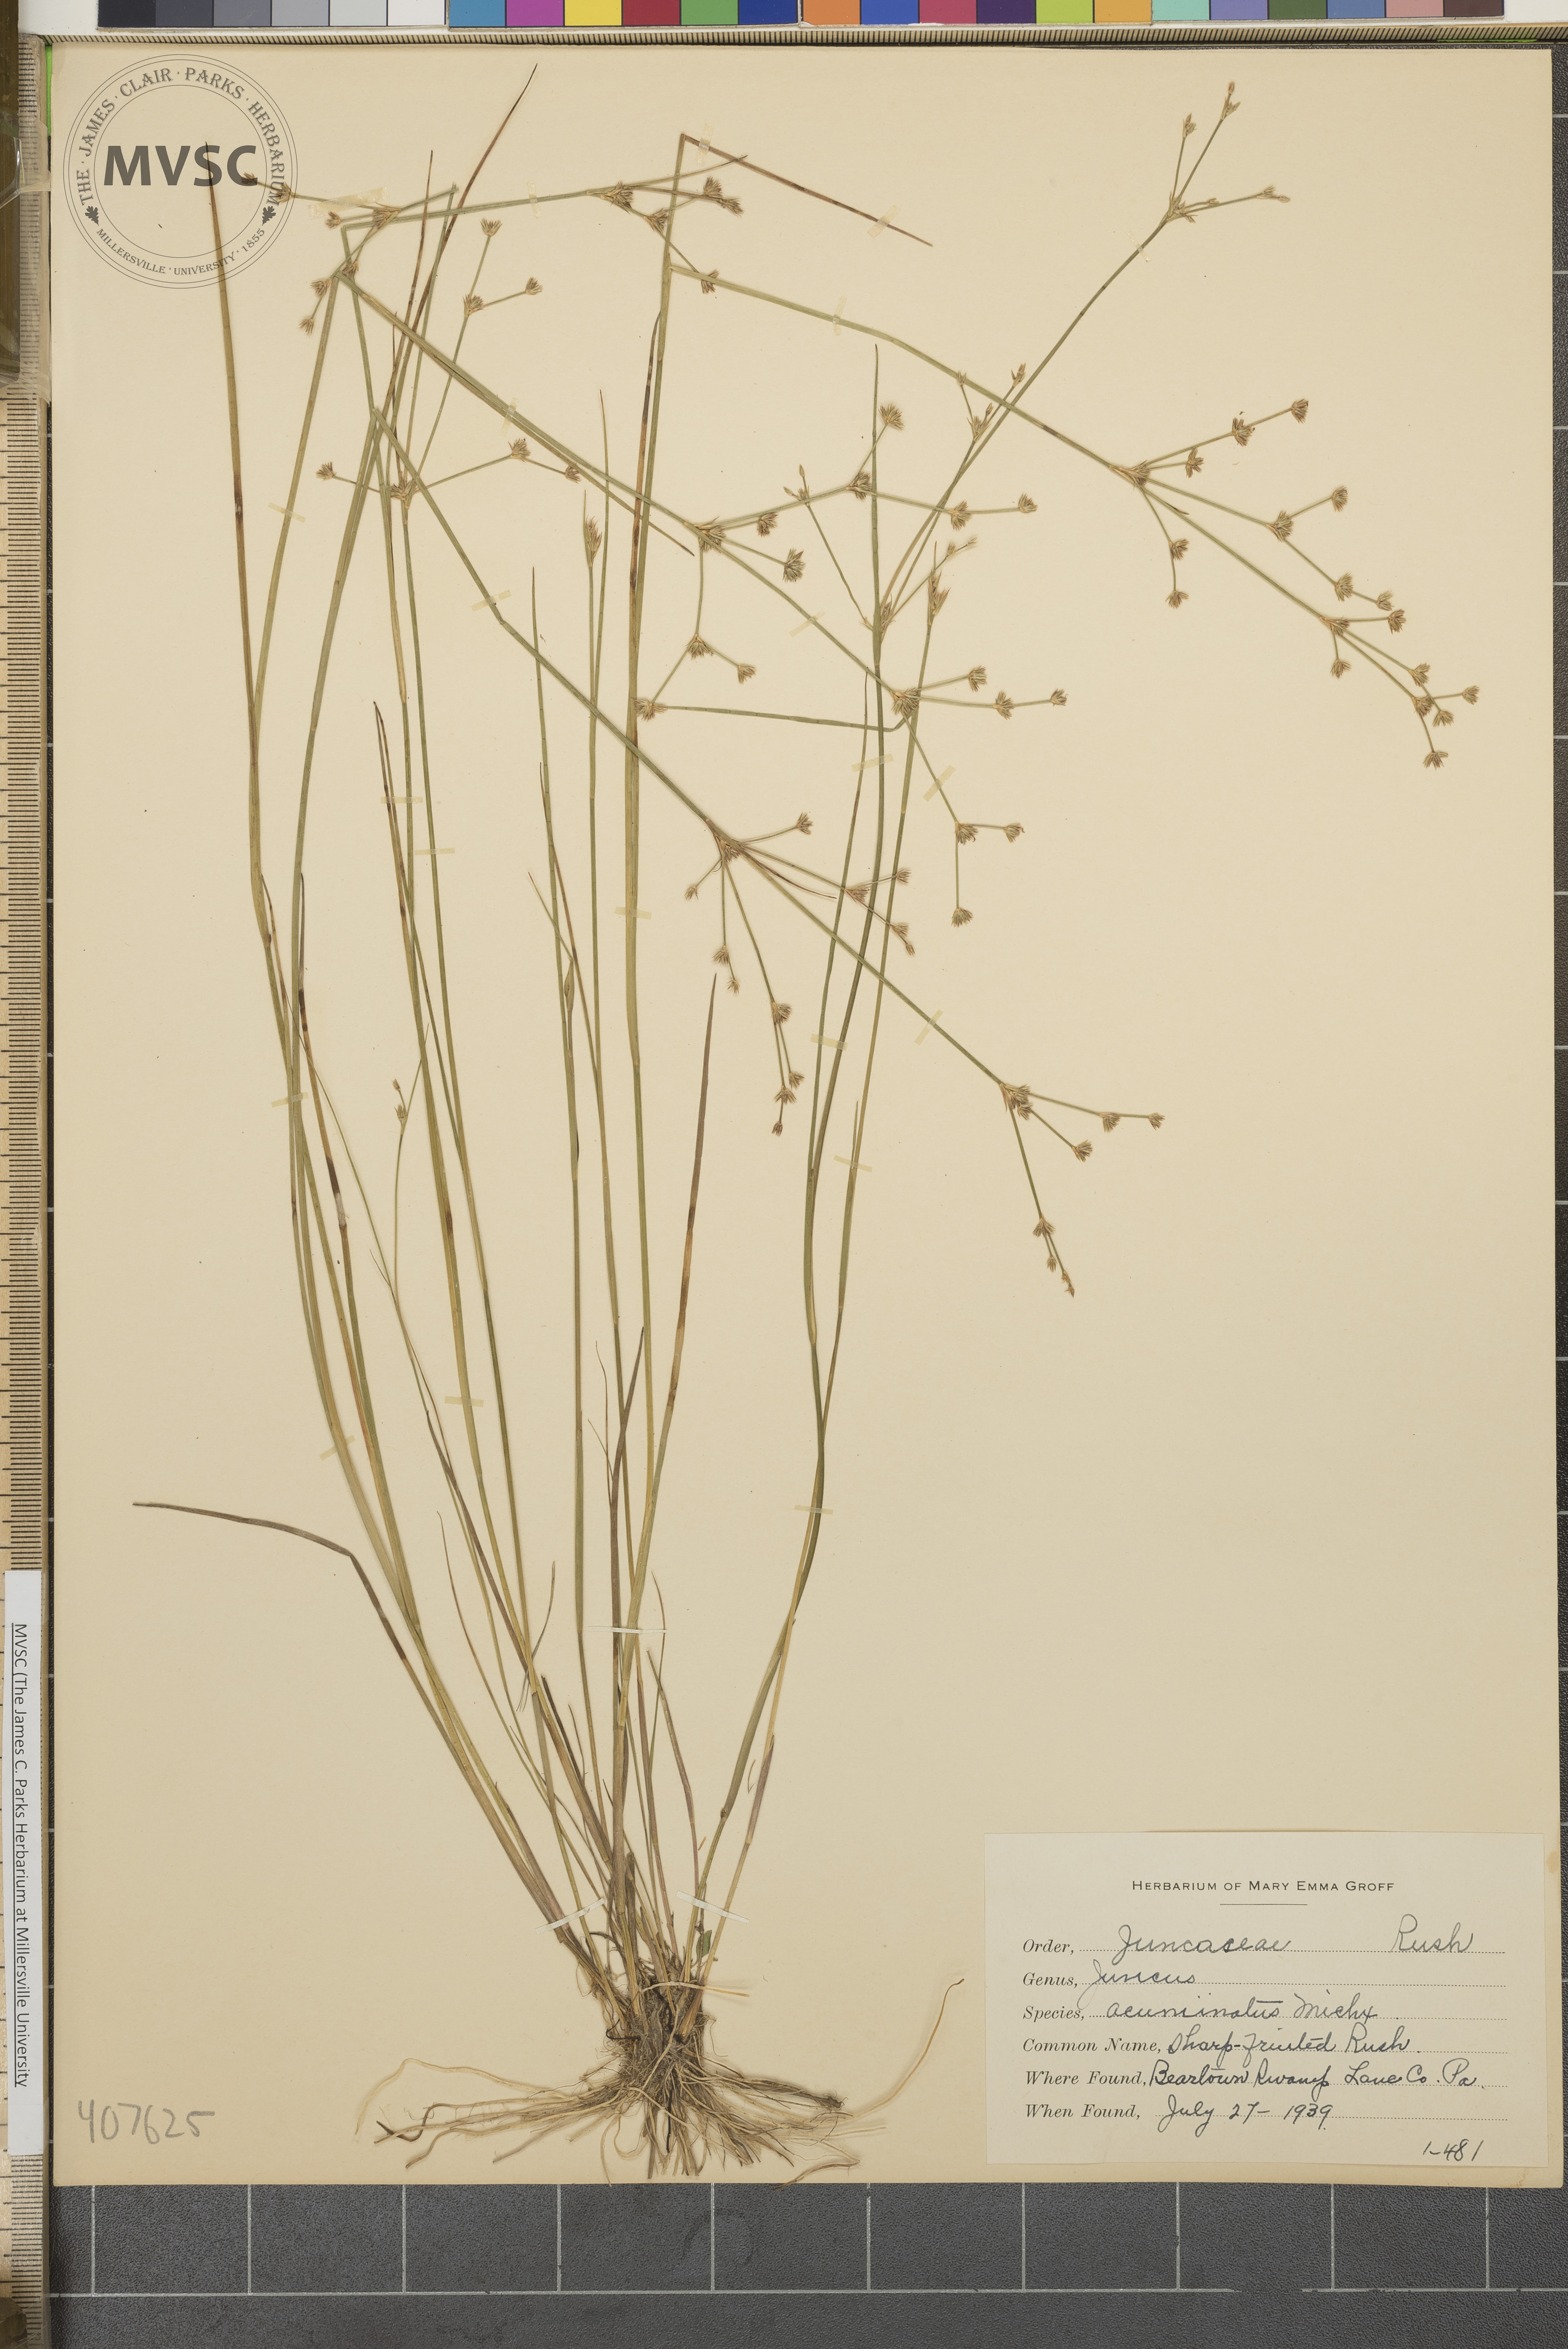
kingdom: Plantae
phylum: Tracheophyta
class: Liliopsida
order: Poales
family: Juncaceae
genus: Juncus
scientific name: Juncus acuminatus
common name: Sharp-fruited Rush
